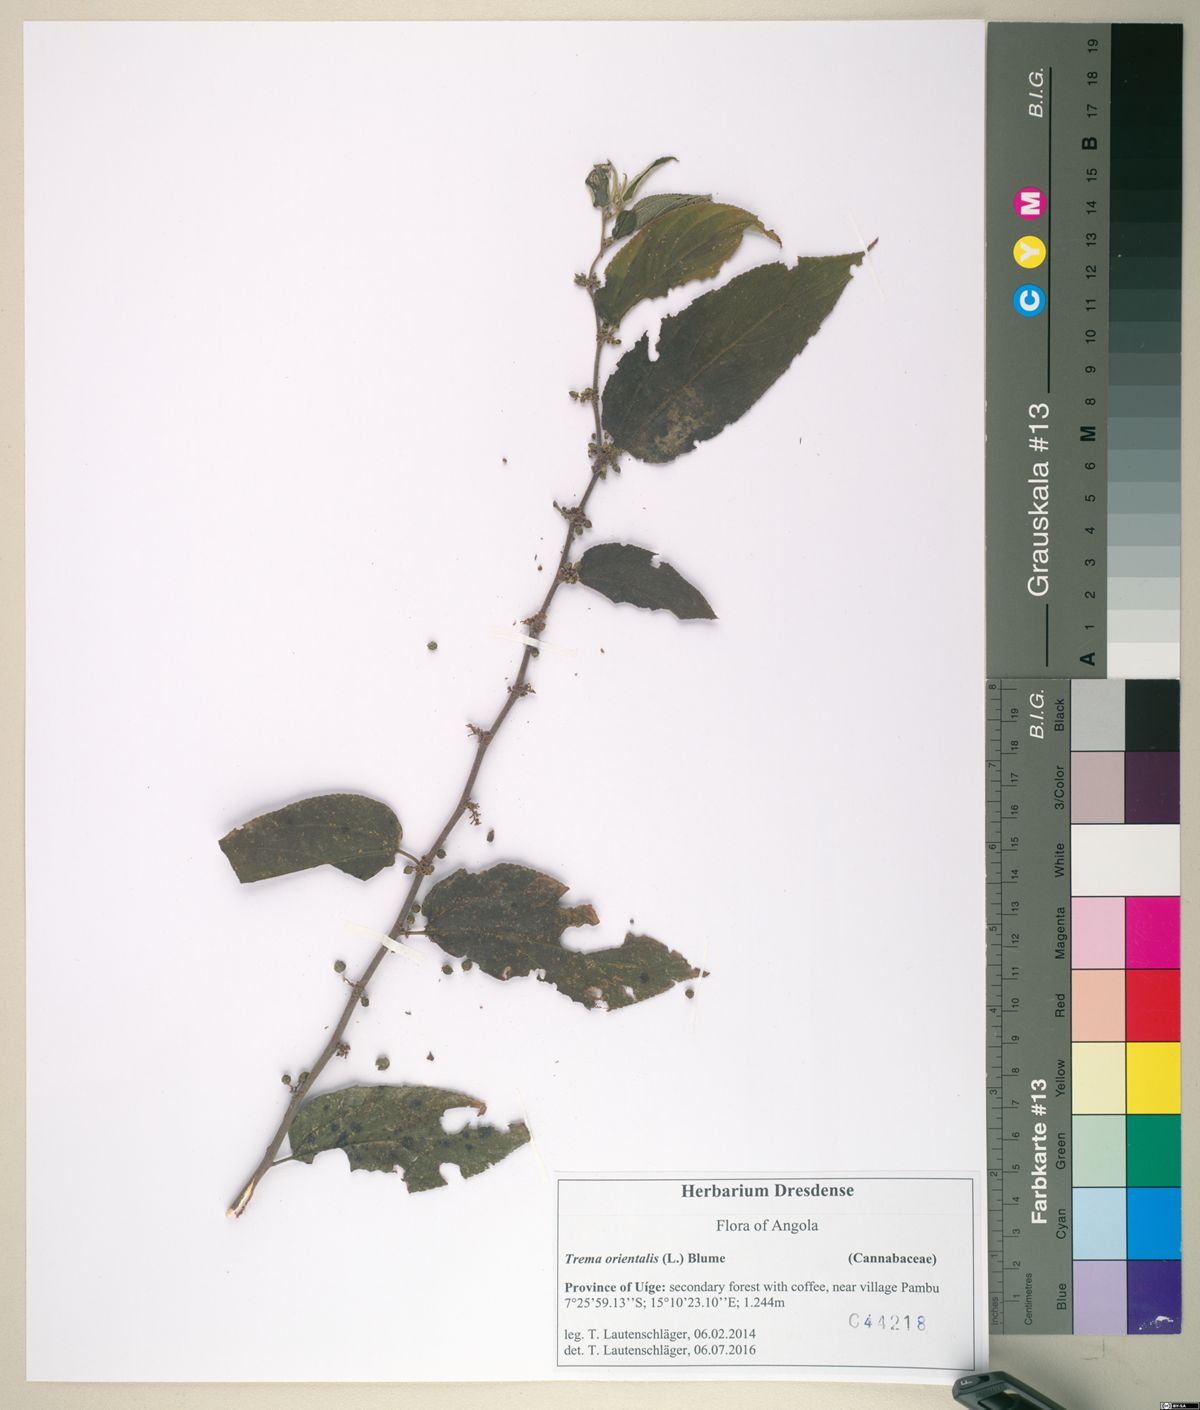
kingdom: Plantae
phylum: Tracheophyta
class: Magnoliopsida
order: Rosales
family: Cannabaceae
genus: Trema
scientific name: Trema orientale
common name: Indian charcoal tree
